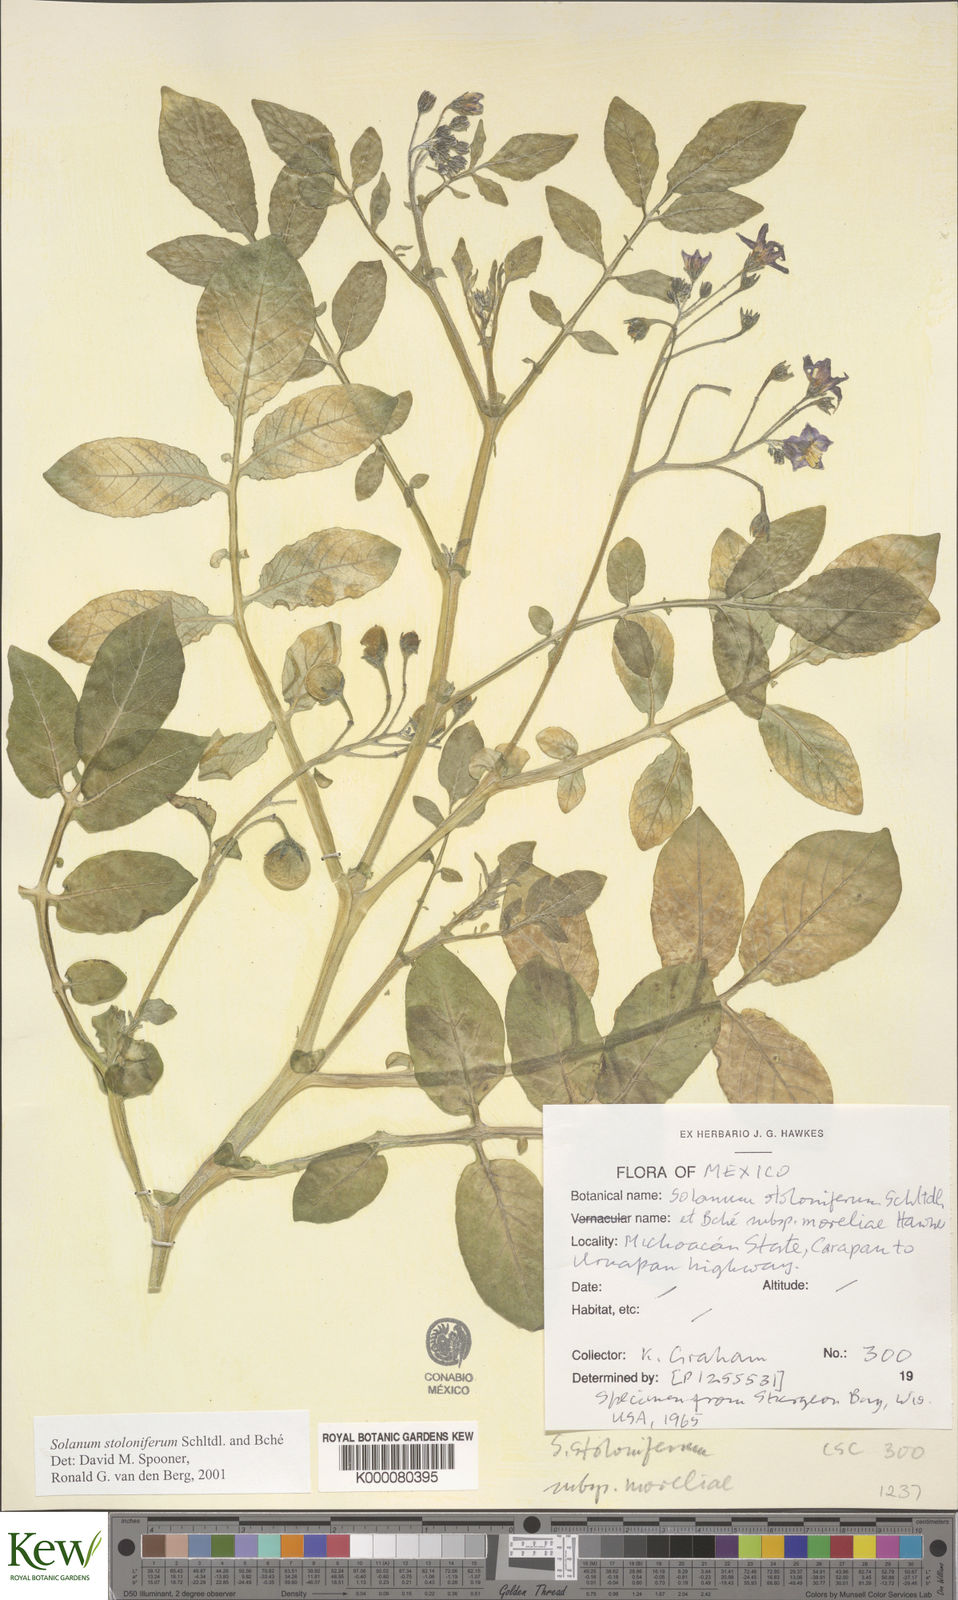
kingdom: Plantae
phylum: Tracheophyta
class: Magnoliopsida
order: Solanales
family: Solanaceae
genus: Solanum
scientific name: Solanum stoloniferum
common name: Fendler's nighshade
